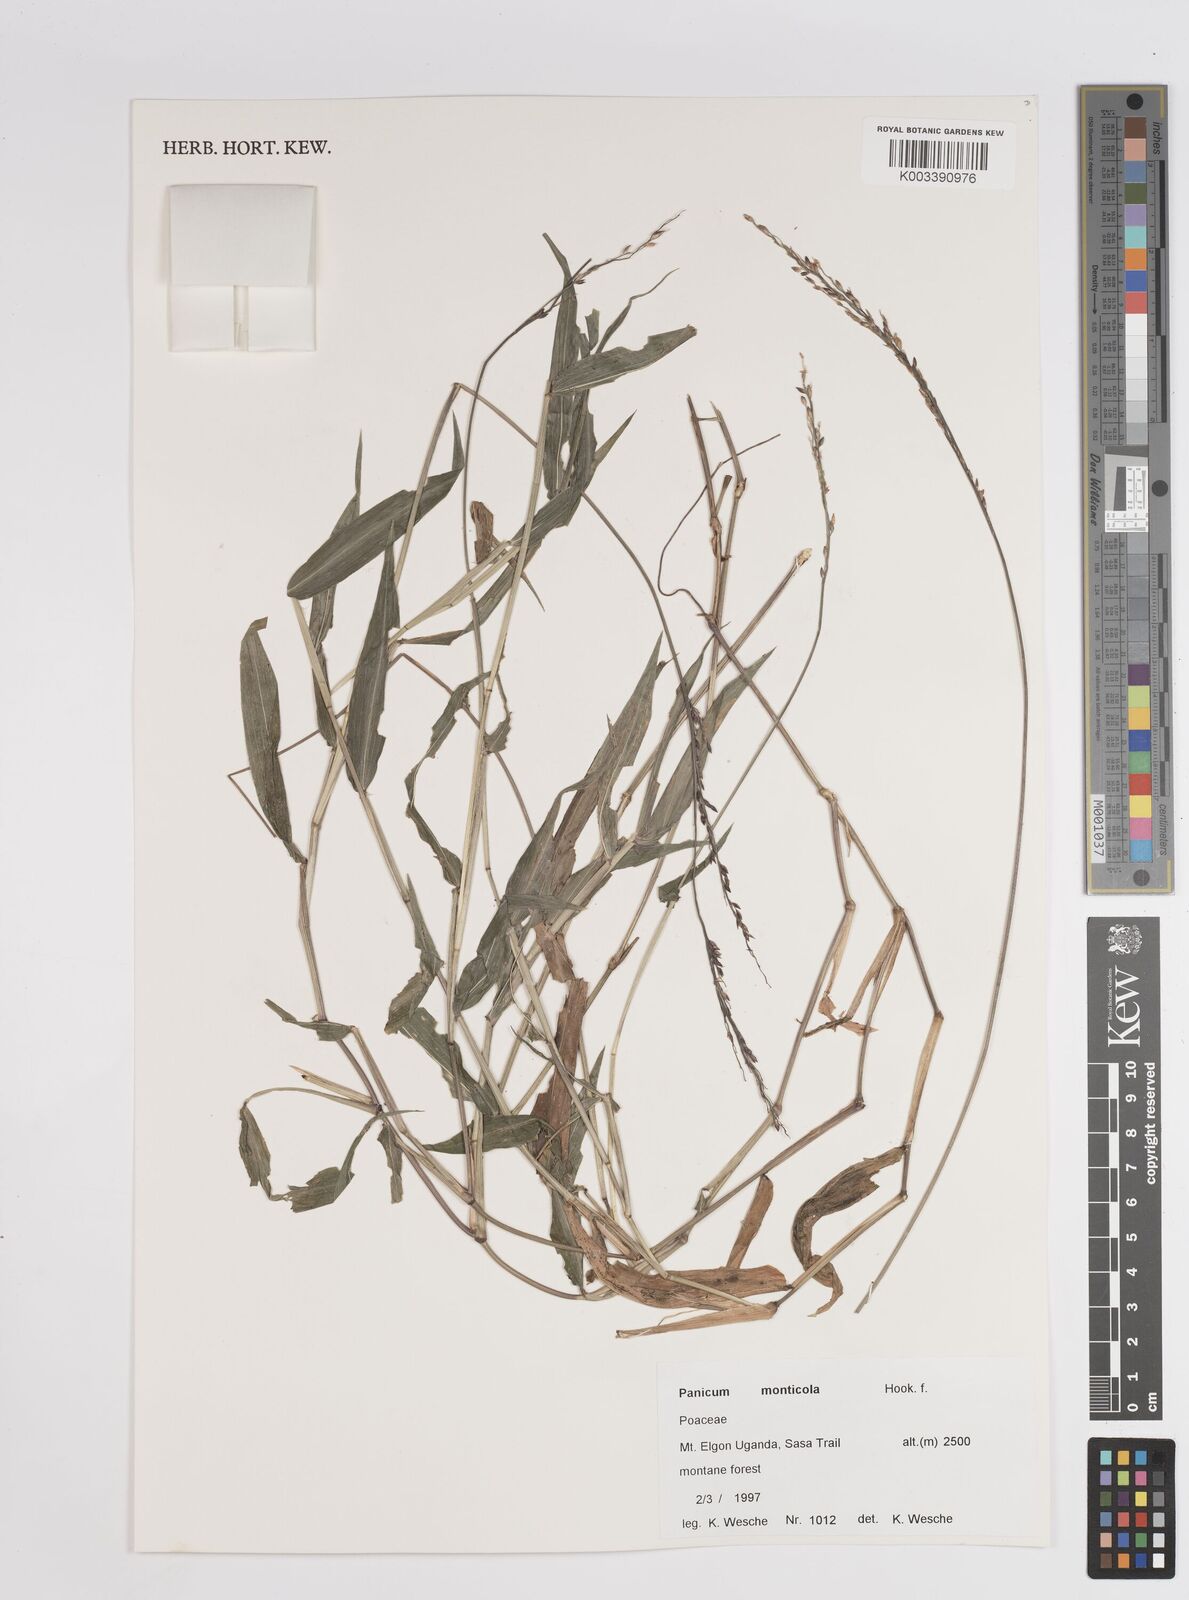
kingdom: Plantae
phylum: Tracheophyta
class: Liliopsida
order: Poales
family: Poaceae
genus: Panicum
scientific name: Panicum
